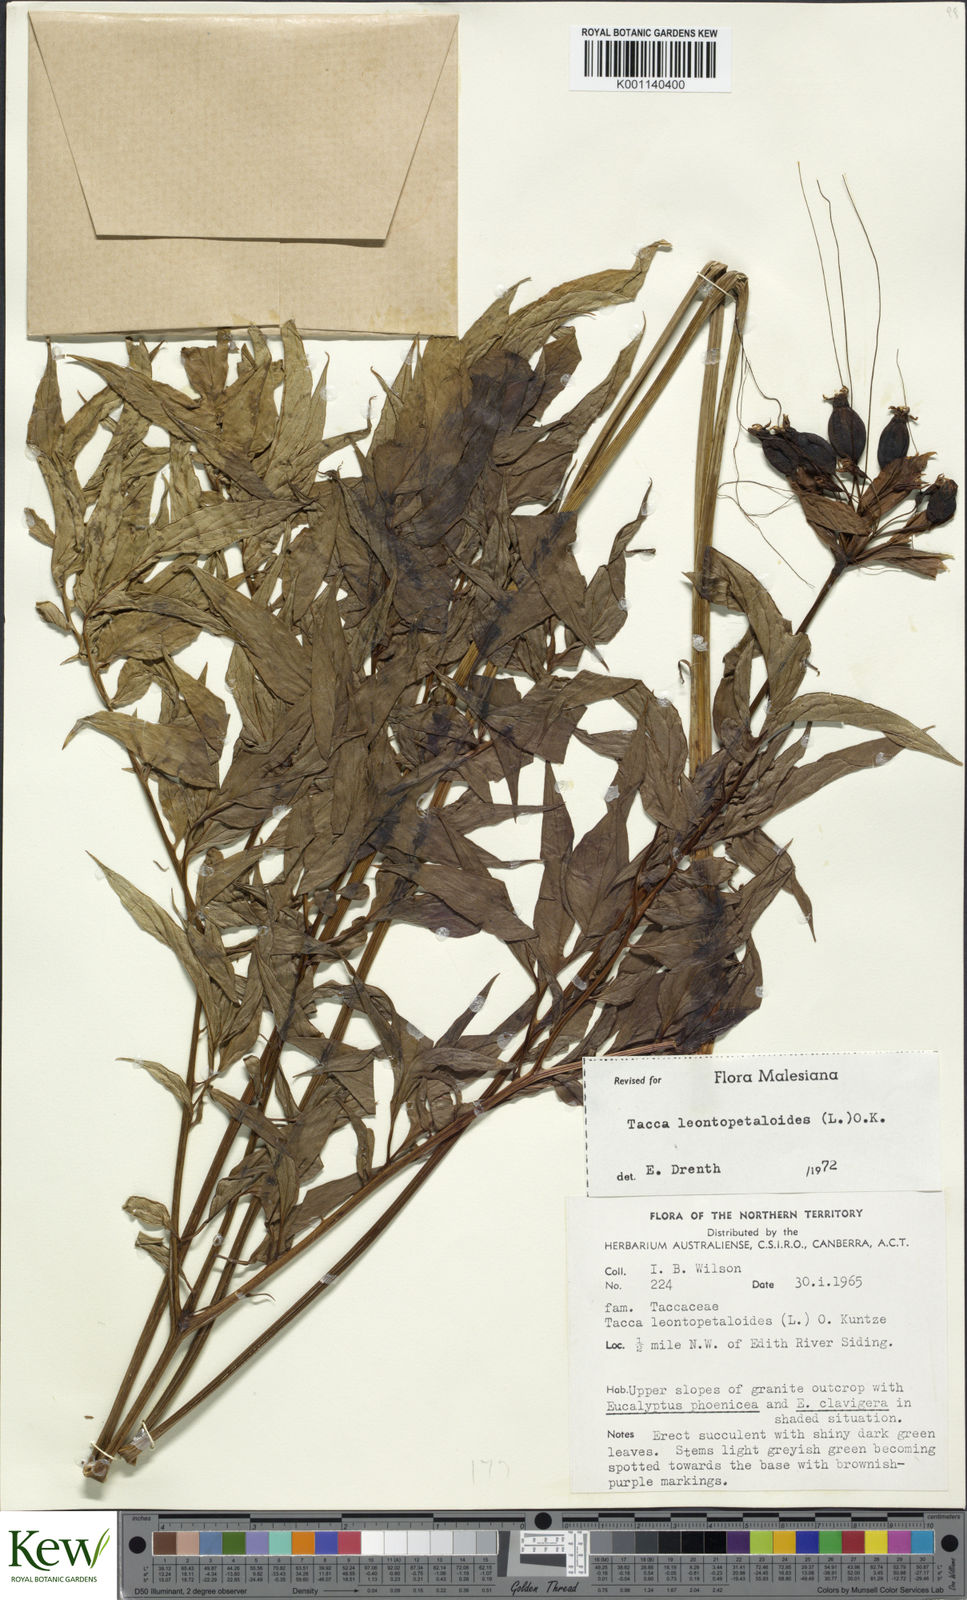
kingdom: Plantae
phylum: Tracheophyta
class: Liliopsida
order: Dioscoreales
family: Dioscoreaceae
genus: Tacca
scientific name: Tacca leontopetaloides
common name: Arrowroot
